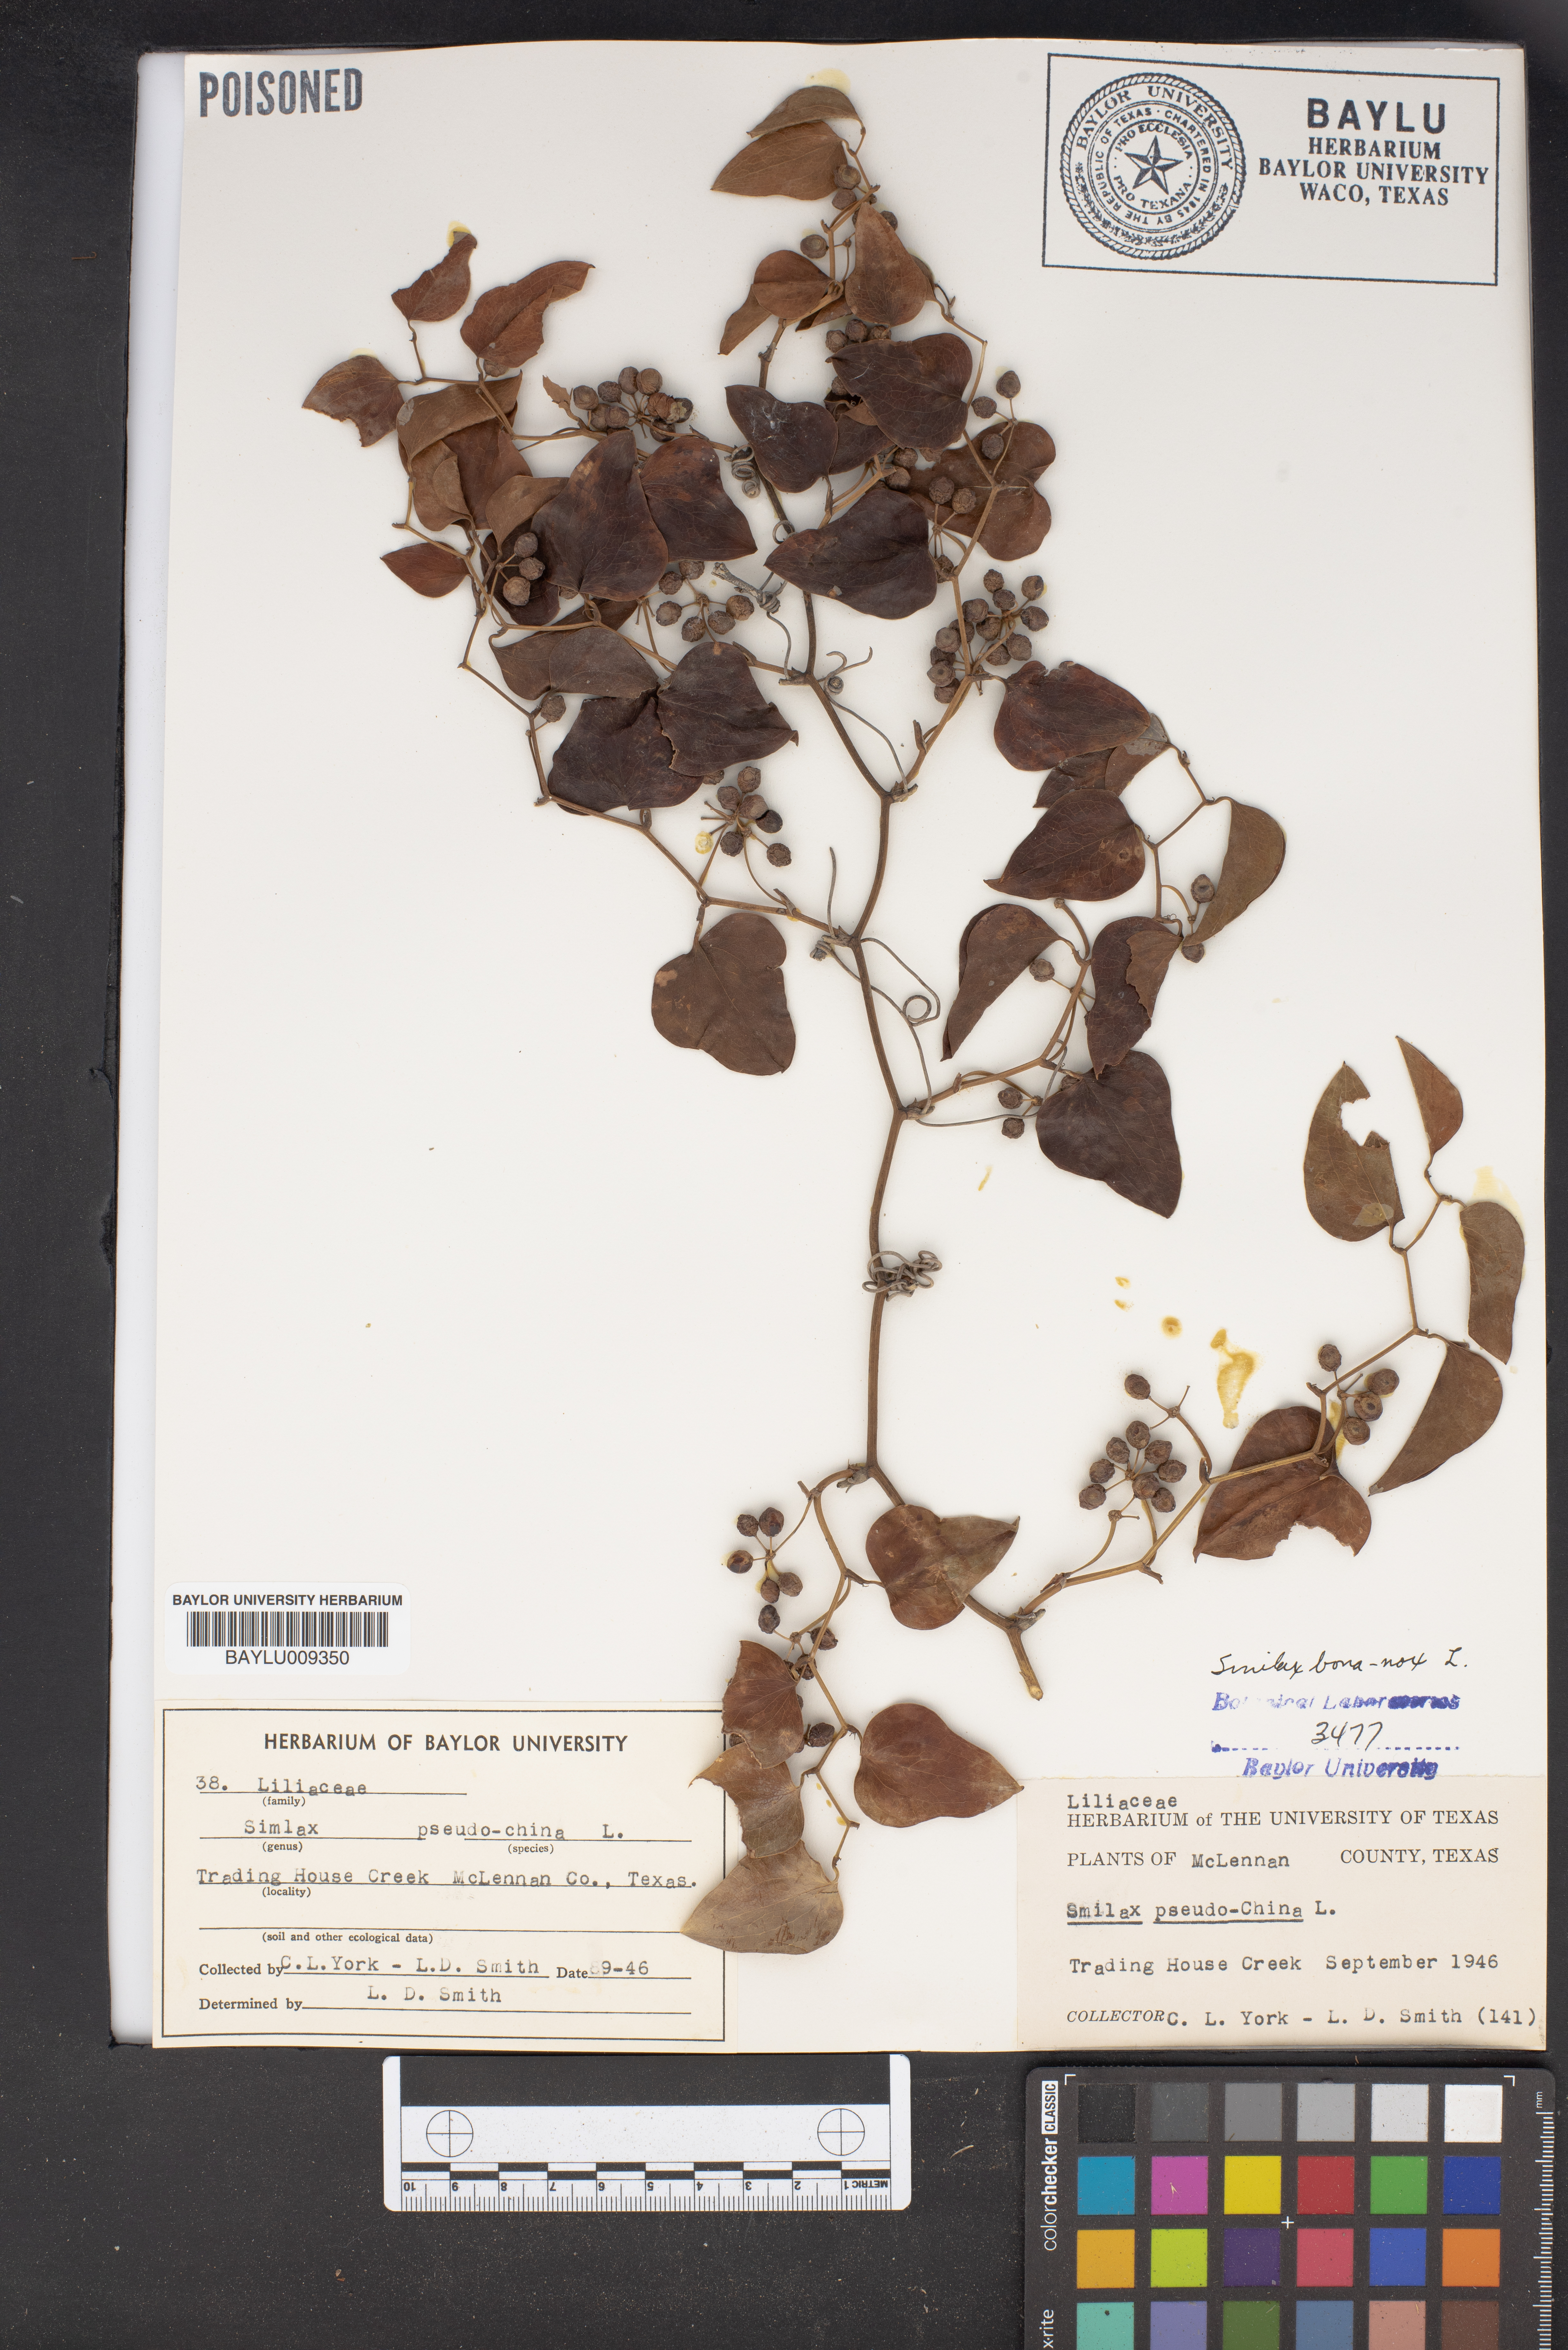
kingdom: Plantae
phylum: Tracheophyta
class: Liliopsida
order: Liliales
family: Smilacaceae
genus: Smilax
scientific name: Smilax pseudochina
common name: False chinaroot
